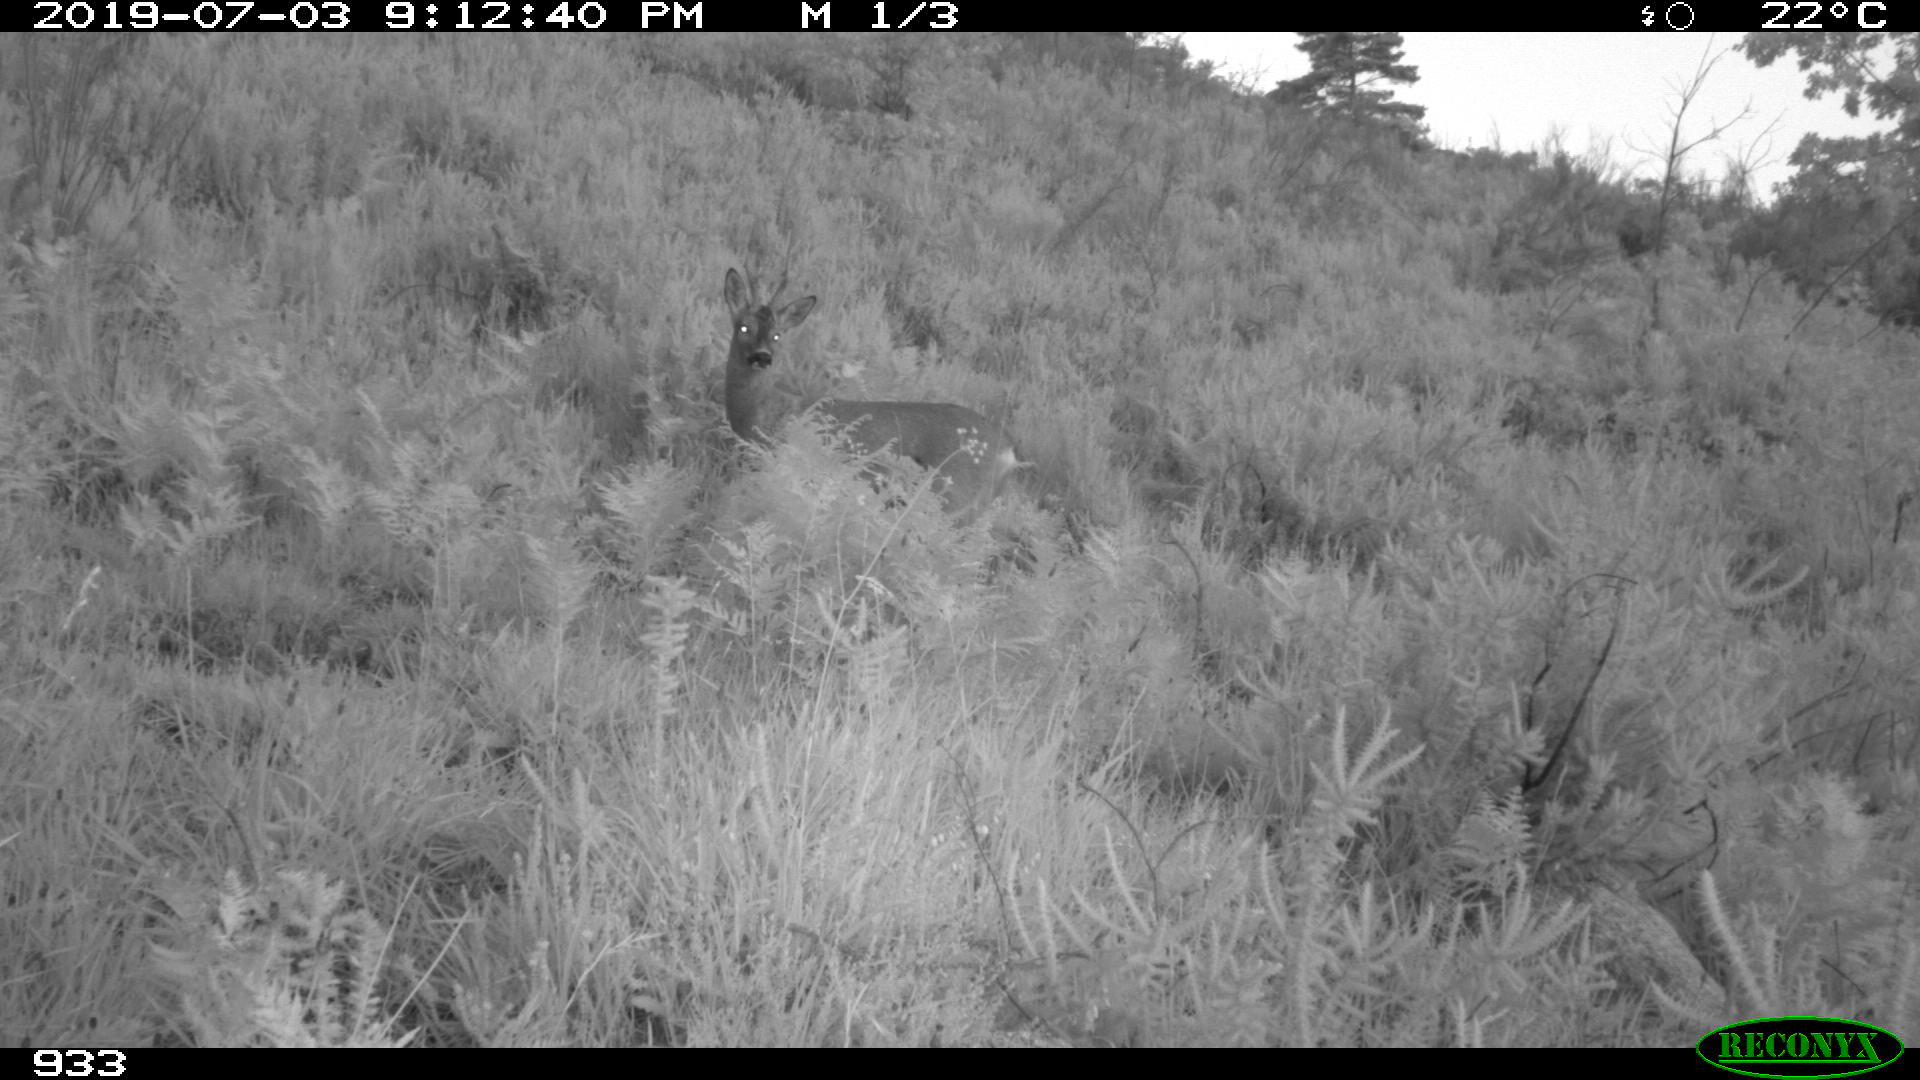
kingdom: Animalia
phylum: Chordata
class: Mammalia
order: Artiodactyla
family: Cervidae
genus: Capreolus
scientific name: Capreolus capreolus
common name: Western roe deer
